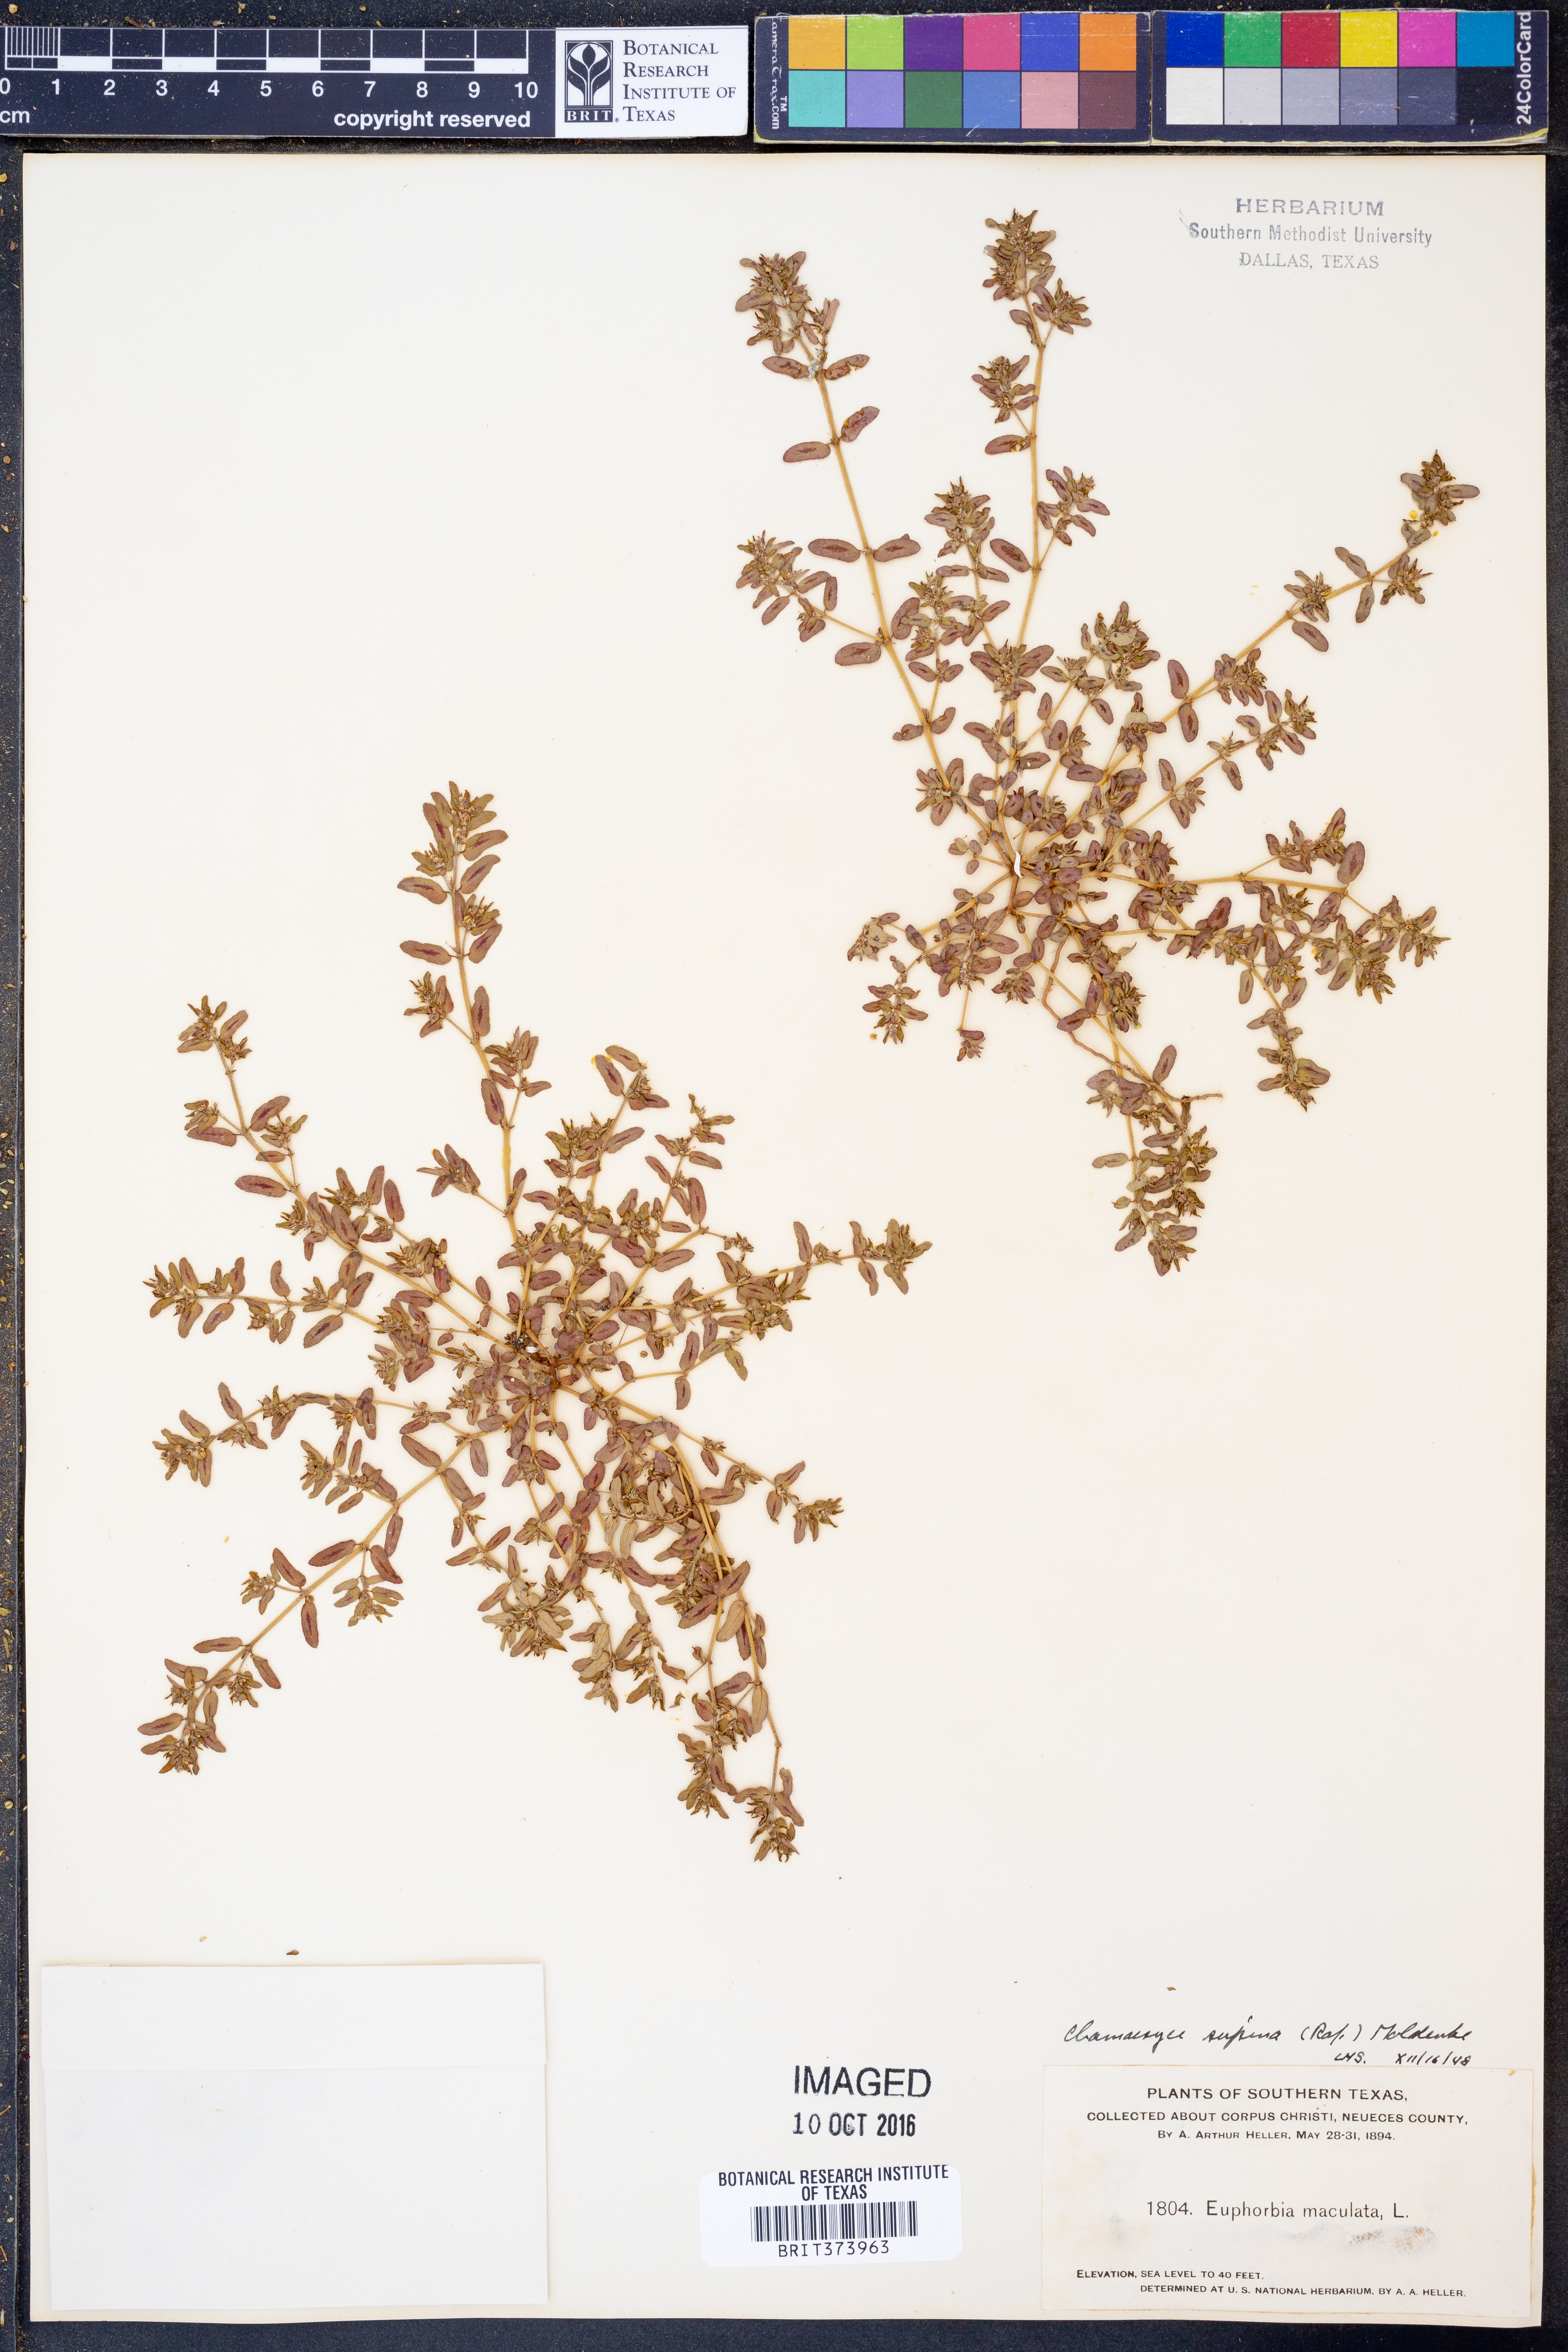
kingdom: Plantae
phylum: Tracheophyta
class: Magnoliopsida
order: Malpighiales
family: Euphorbiaceae
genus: Euphorbia
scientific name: Euphorbia maculata
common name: Spotted spurge
